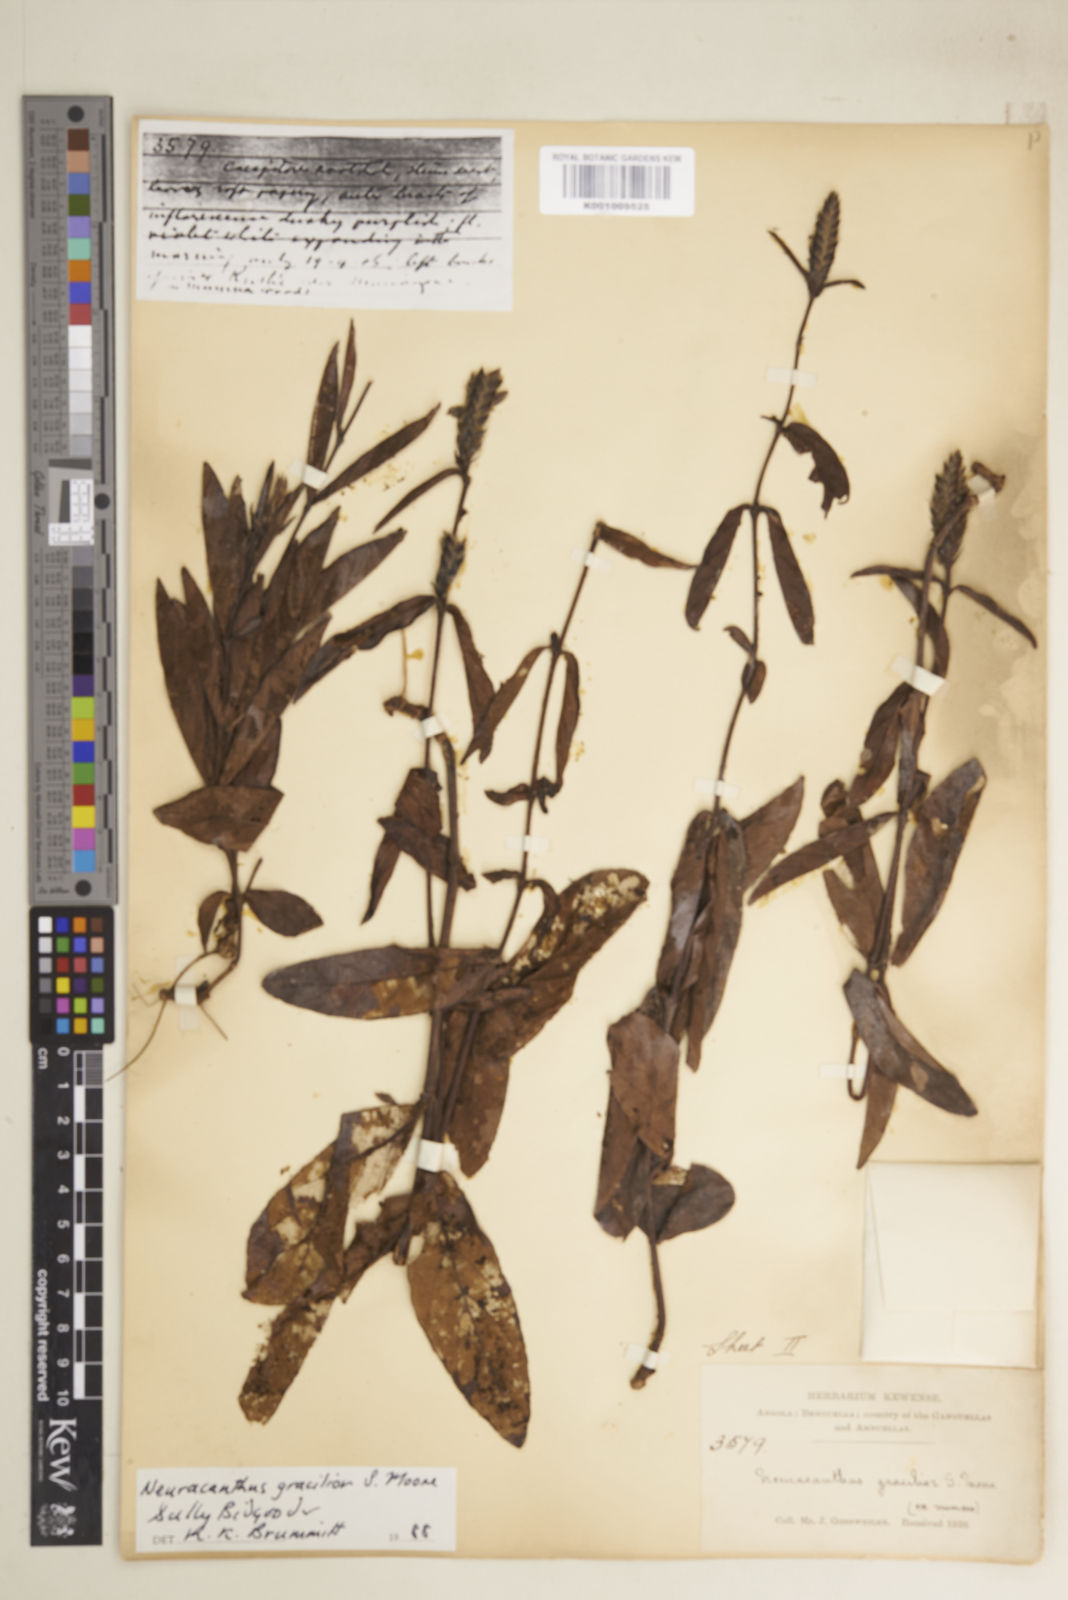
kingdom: Plantae
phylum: Tracheophyta
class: Magnoliopsida
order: Lamiales
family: Acanthaceae
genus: Neuracanthus
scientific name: Neuracanthus gracilior
